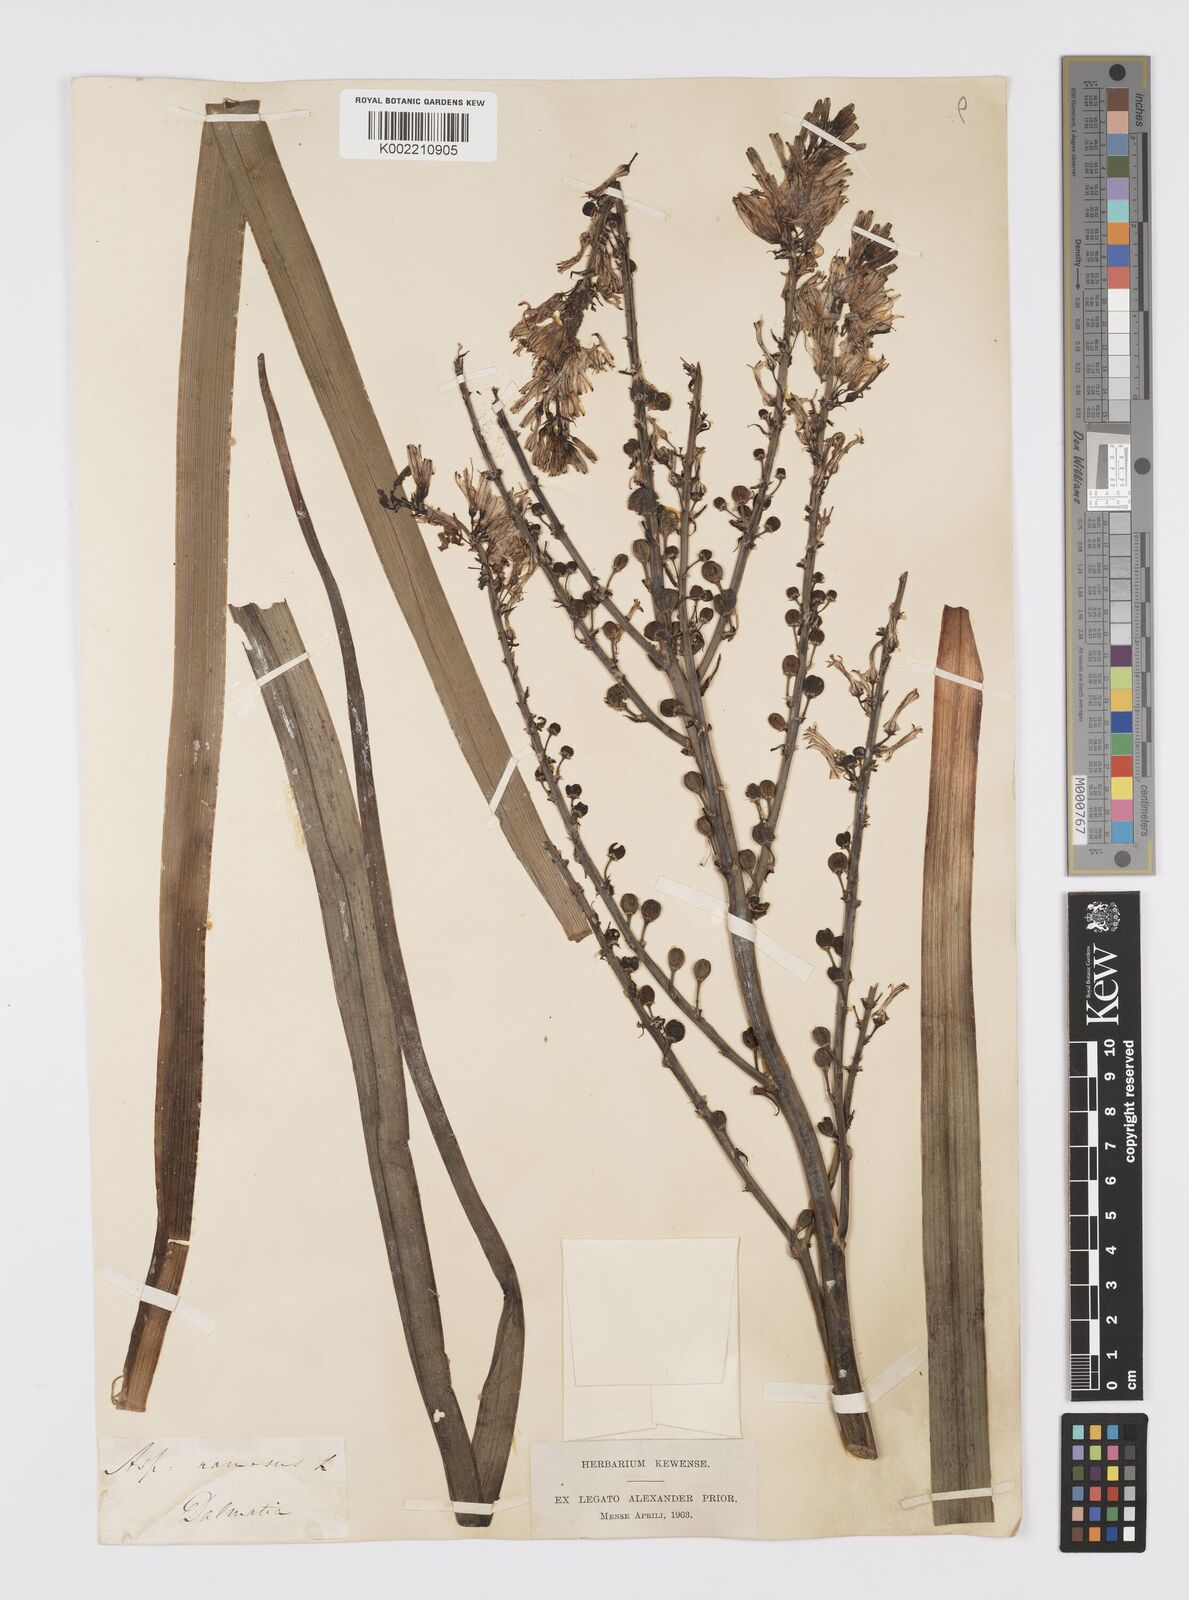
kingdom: Plantae
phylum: Tracheophyta
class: Liliopsida
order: Asparagales
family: Asphodelaceae
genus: Asphodelus
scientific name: Asphodelus ramosus
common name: Silverrod
